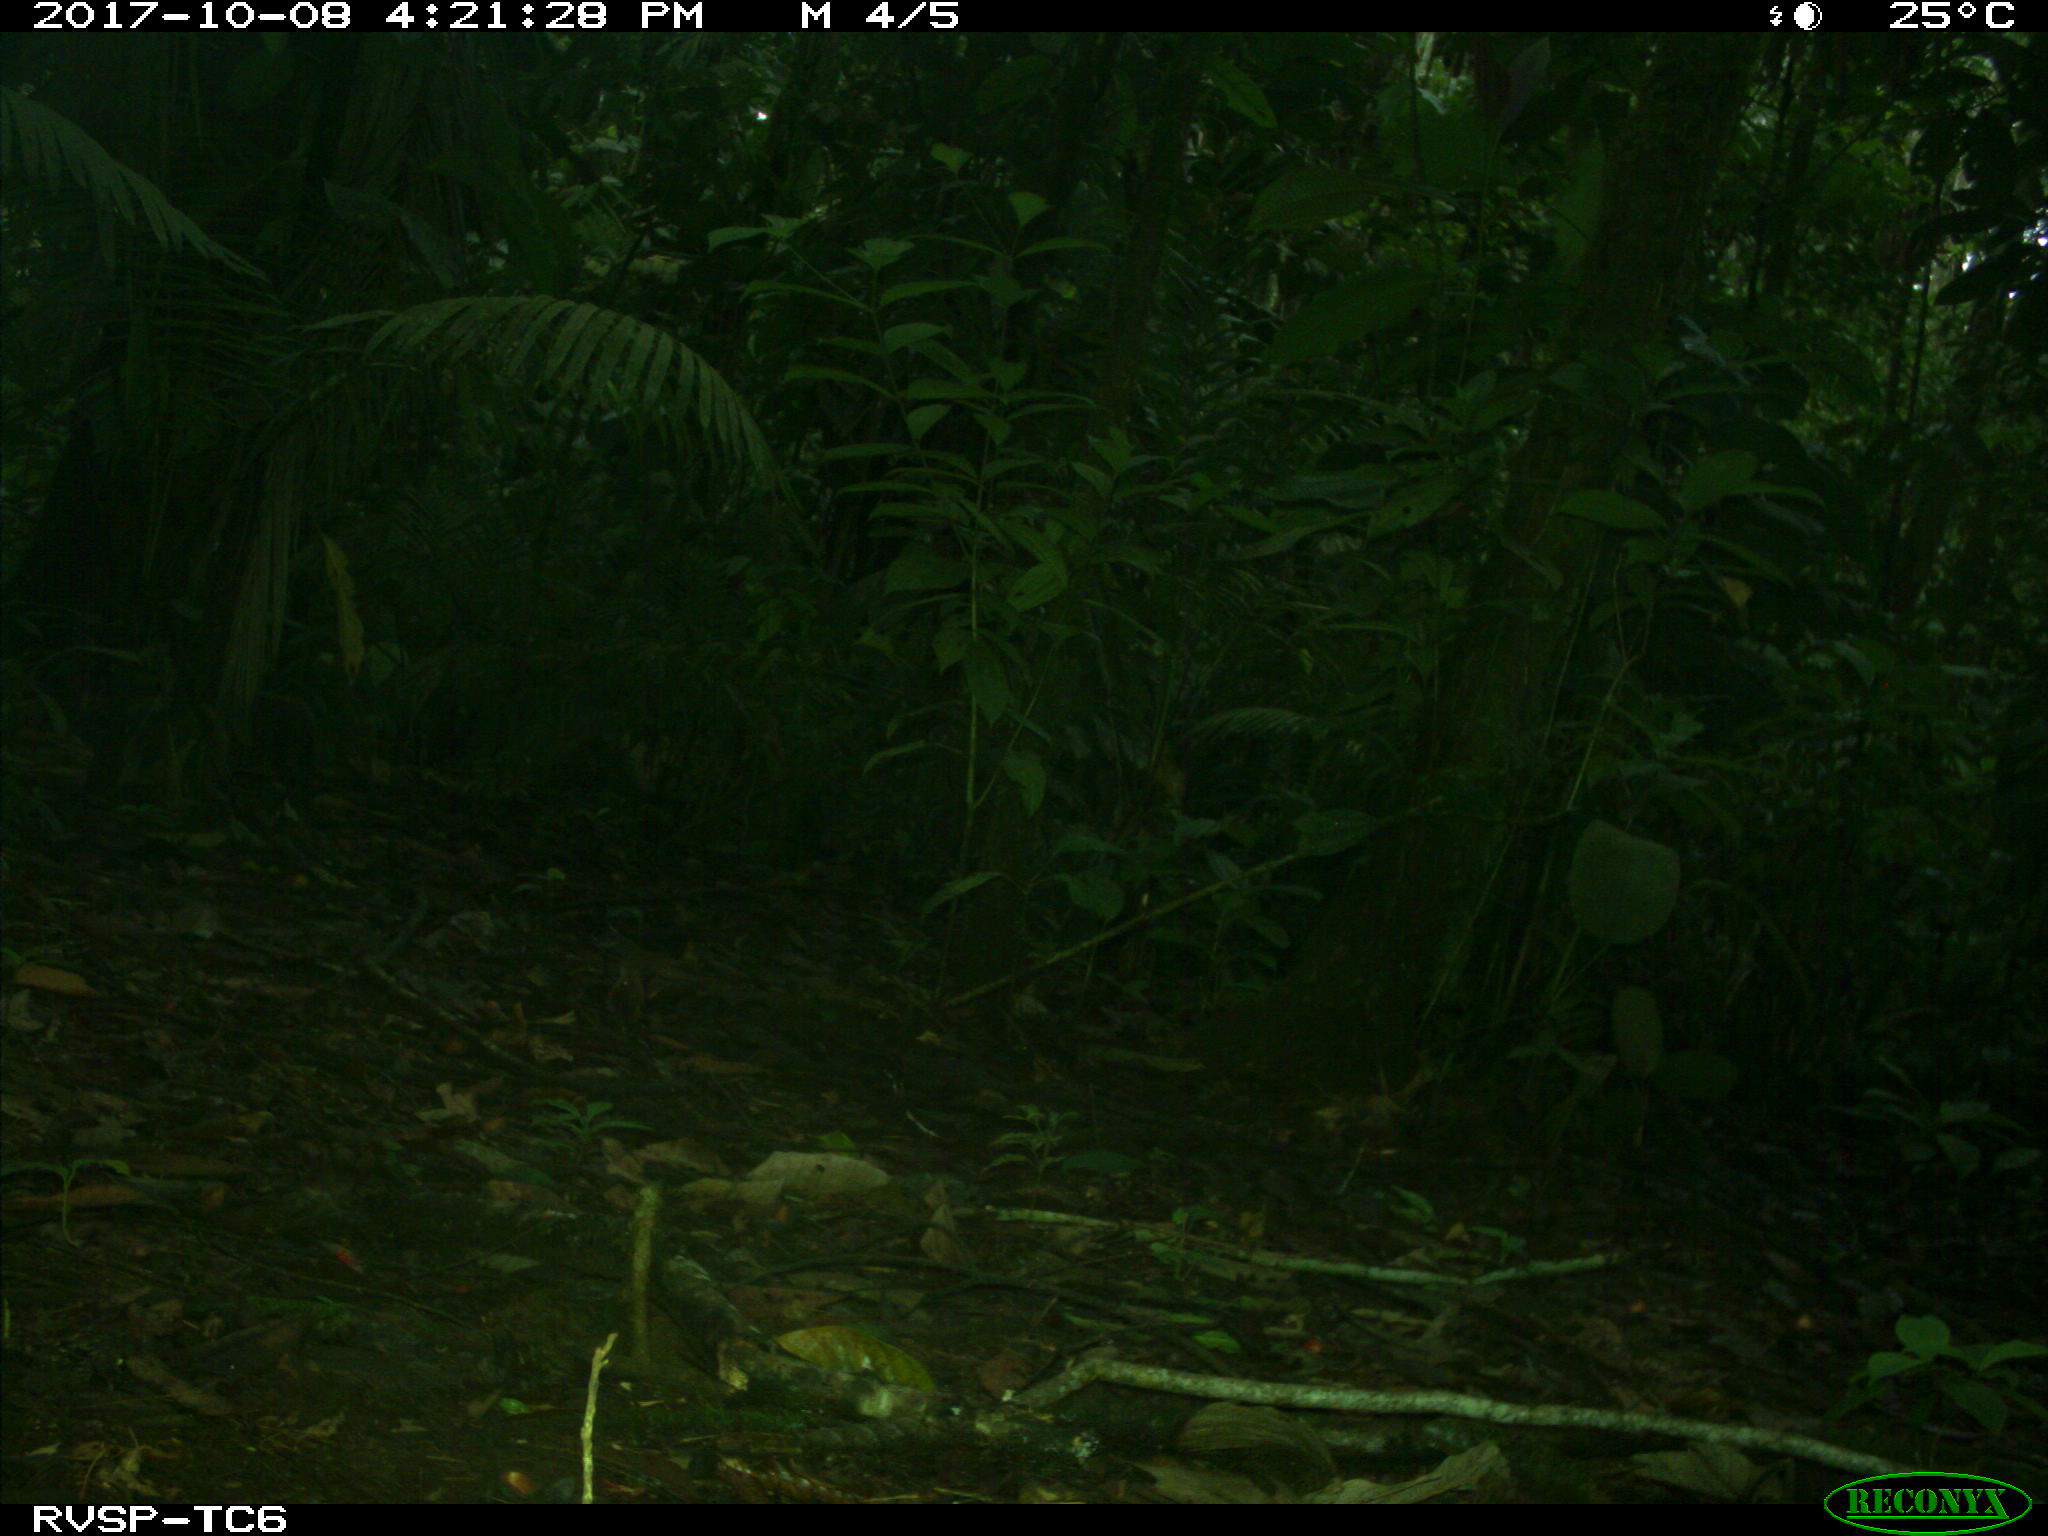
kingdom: Animalia
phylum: Chordata
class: Mammalia
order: Rodentia
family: Dasyproctidae
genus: Dasyprocta
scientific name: Dasyprocta punctata
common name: Central american agouti
